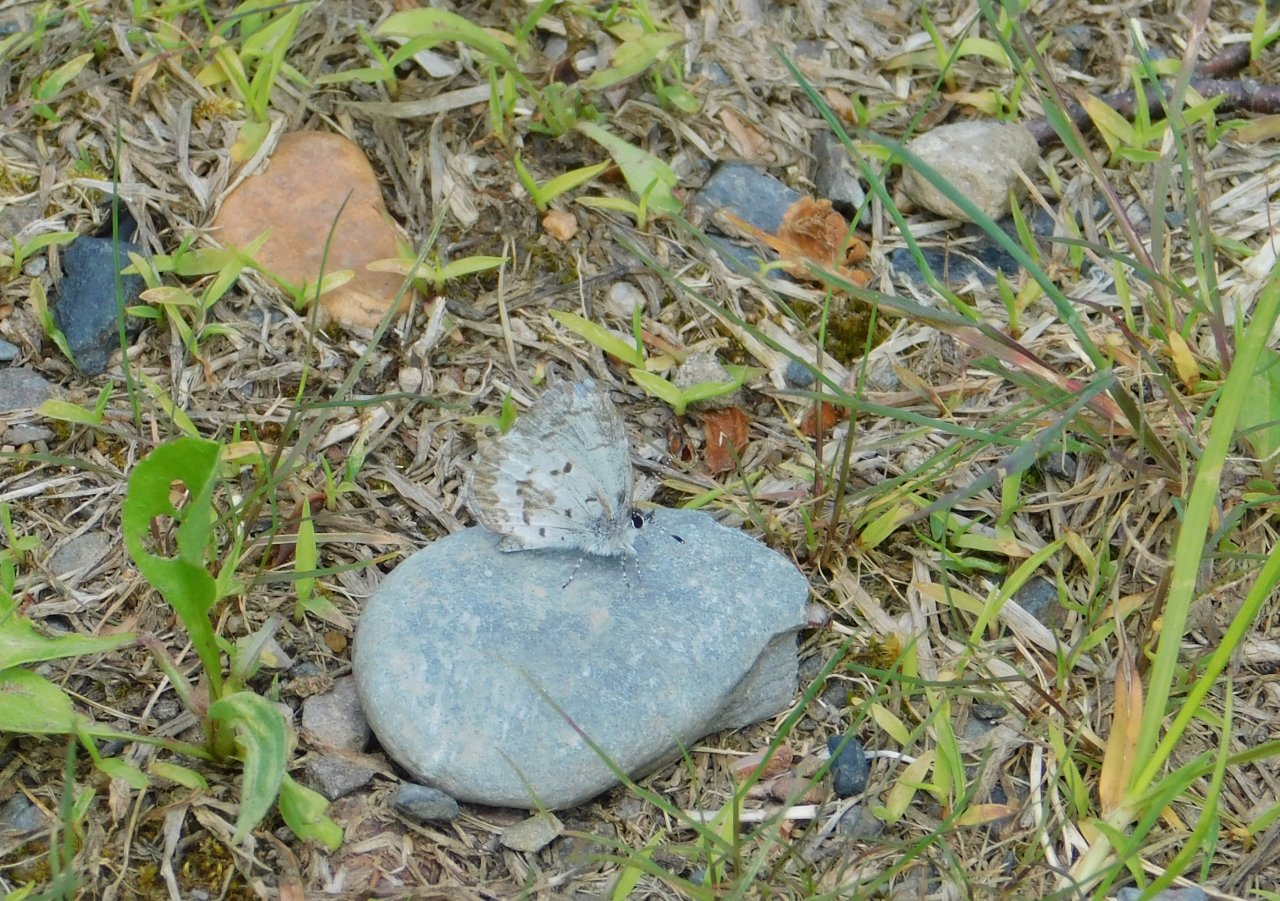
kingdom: Animalia
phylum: Arthropoda
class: Insecta
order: Lepidoptera
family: Lycaenidae
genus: Celastrina
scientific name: Celastrina lucia
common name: Northern Spring Azure
